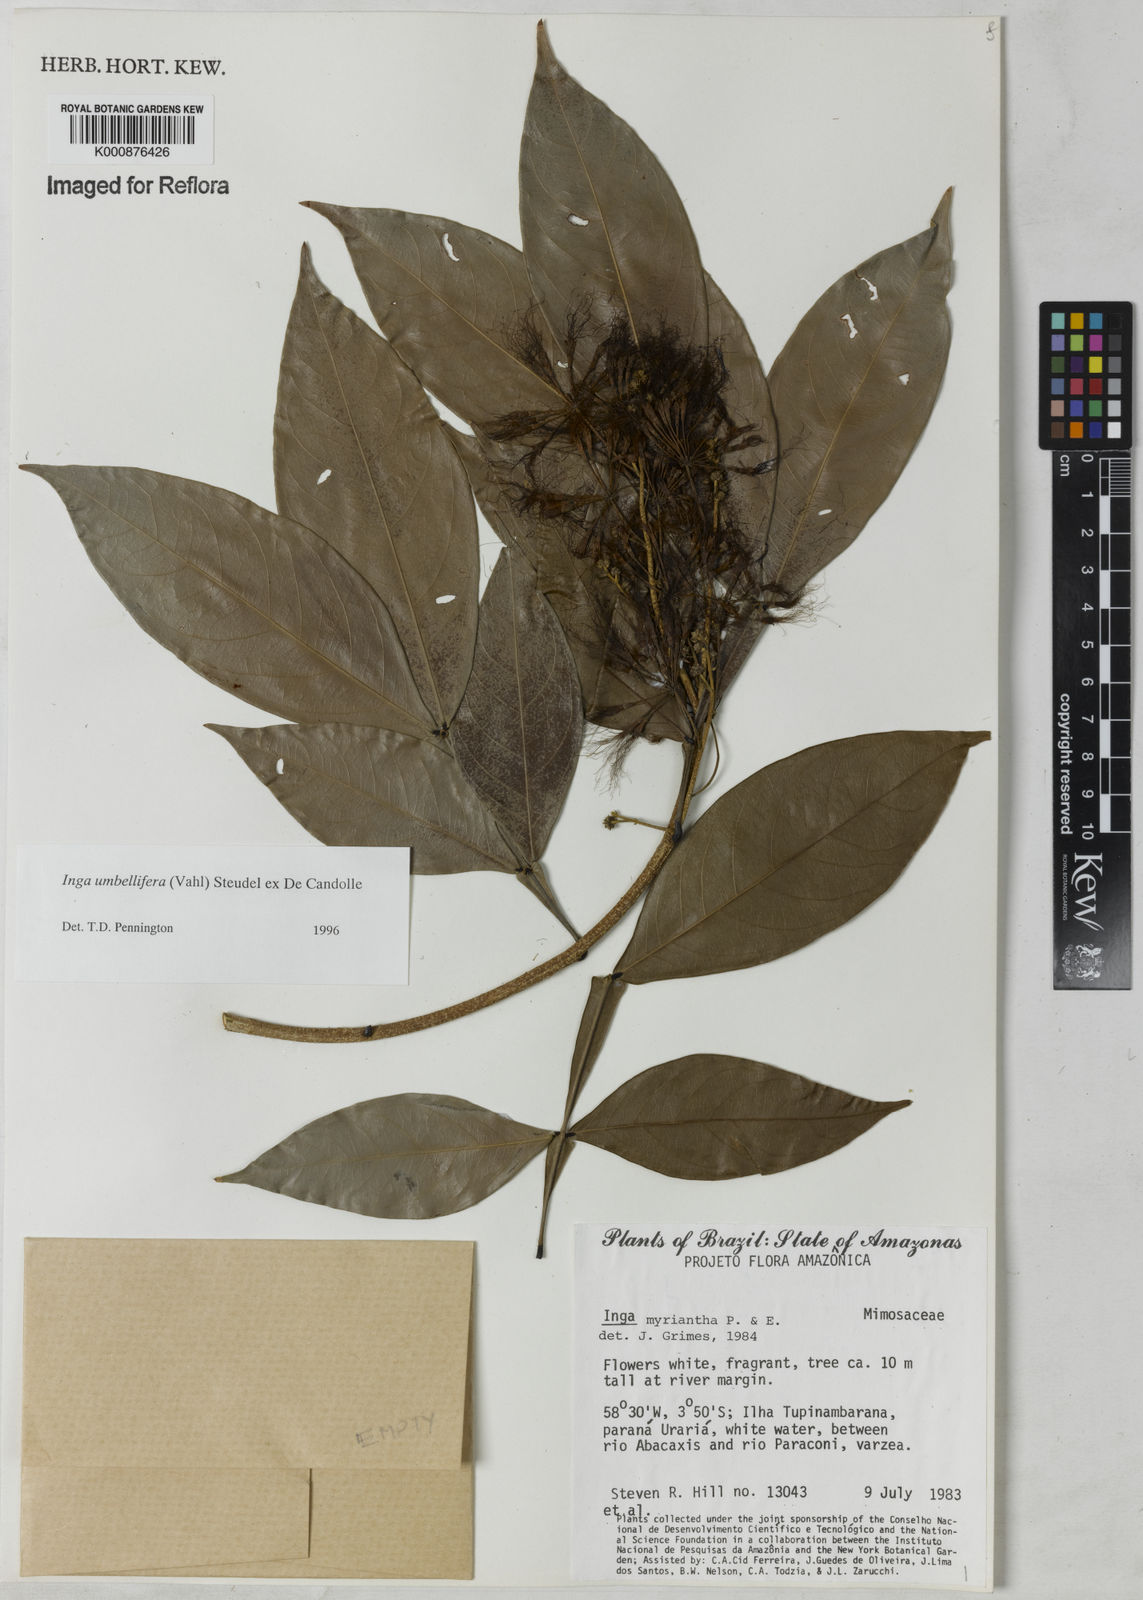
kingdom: Plantae
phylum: Tracheophyta
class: Magnoliopsida
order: Fabales
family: Fabaceae
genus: Inga
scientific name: Inga umbellifera
